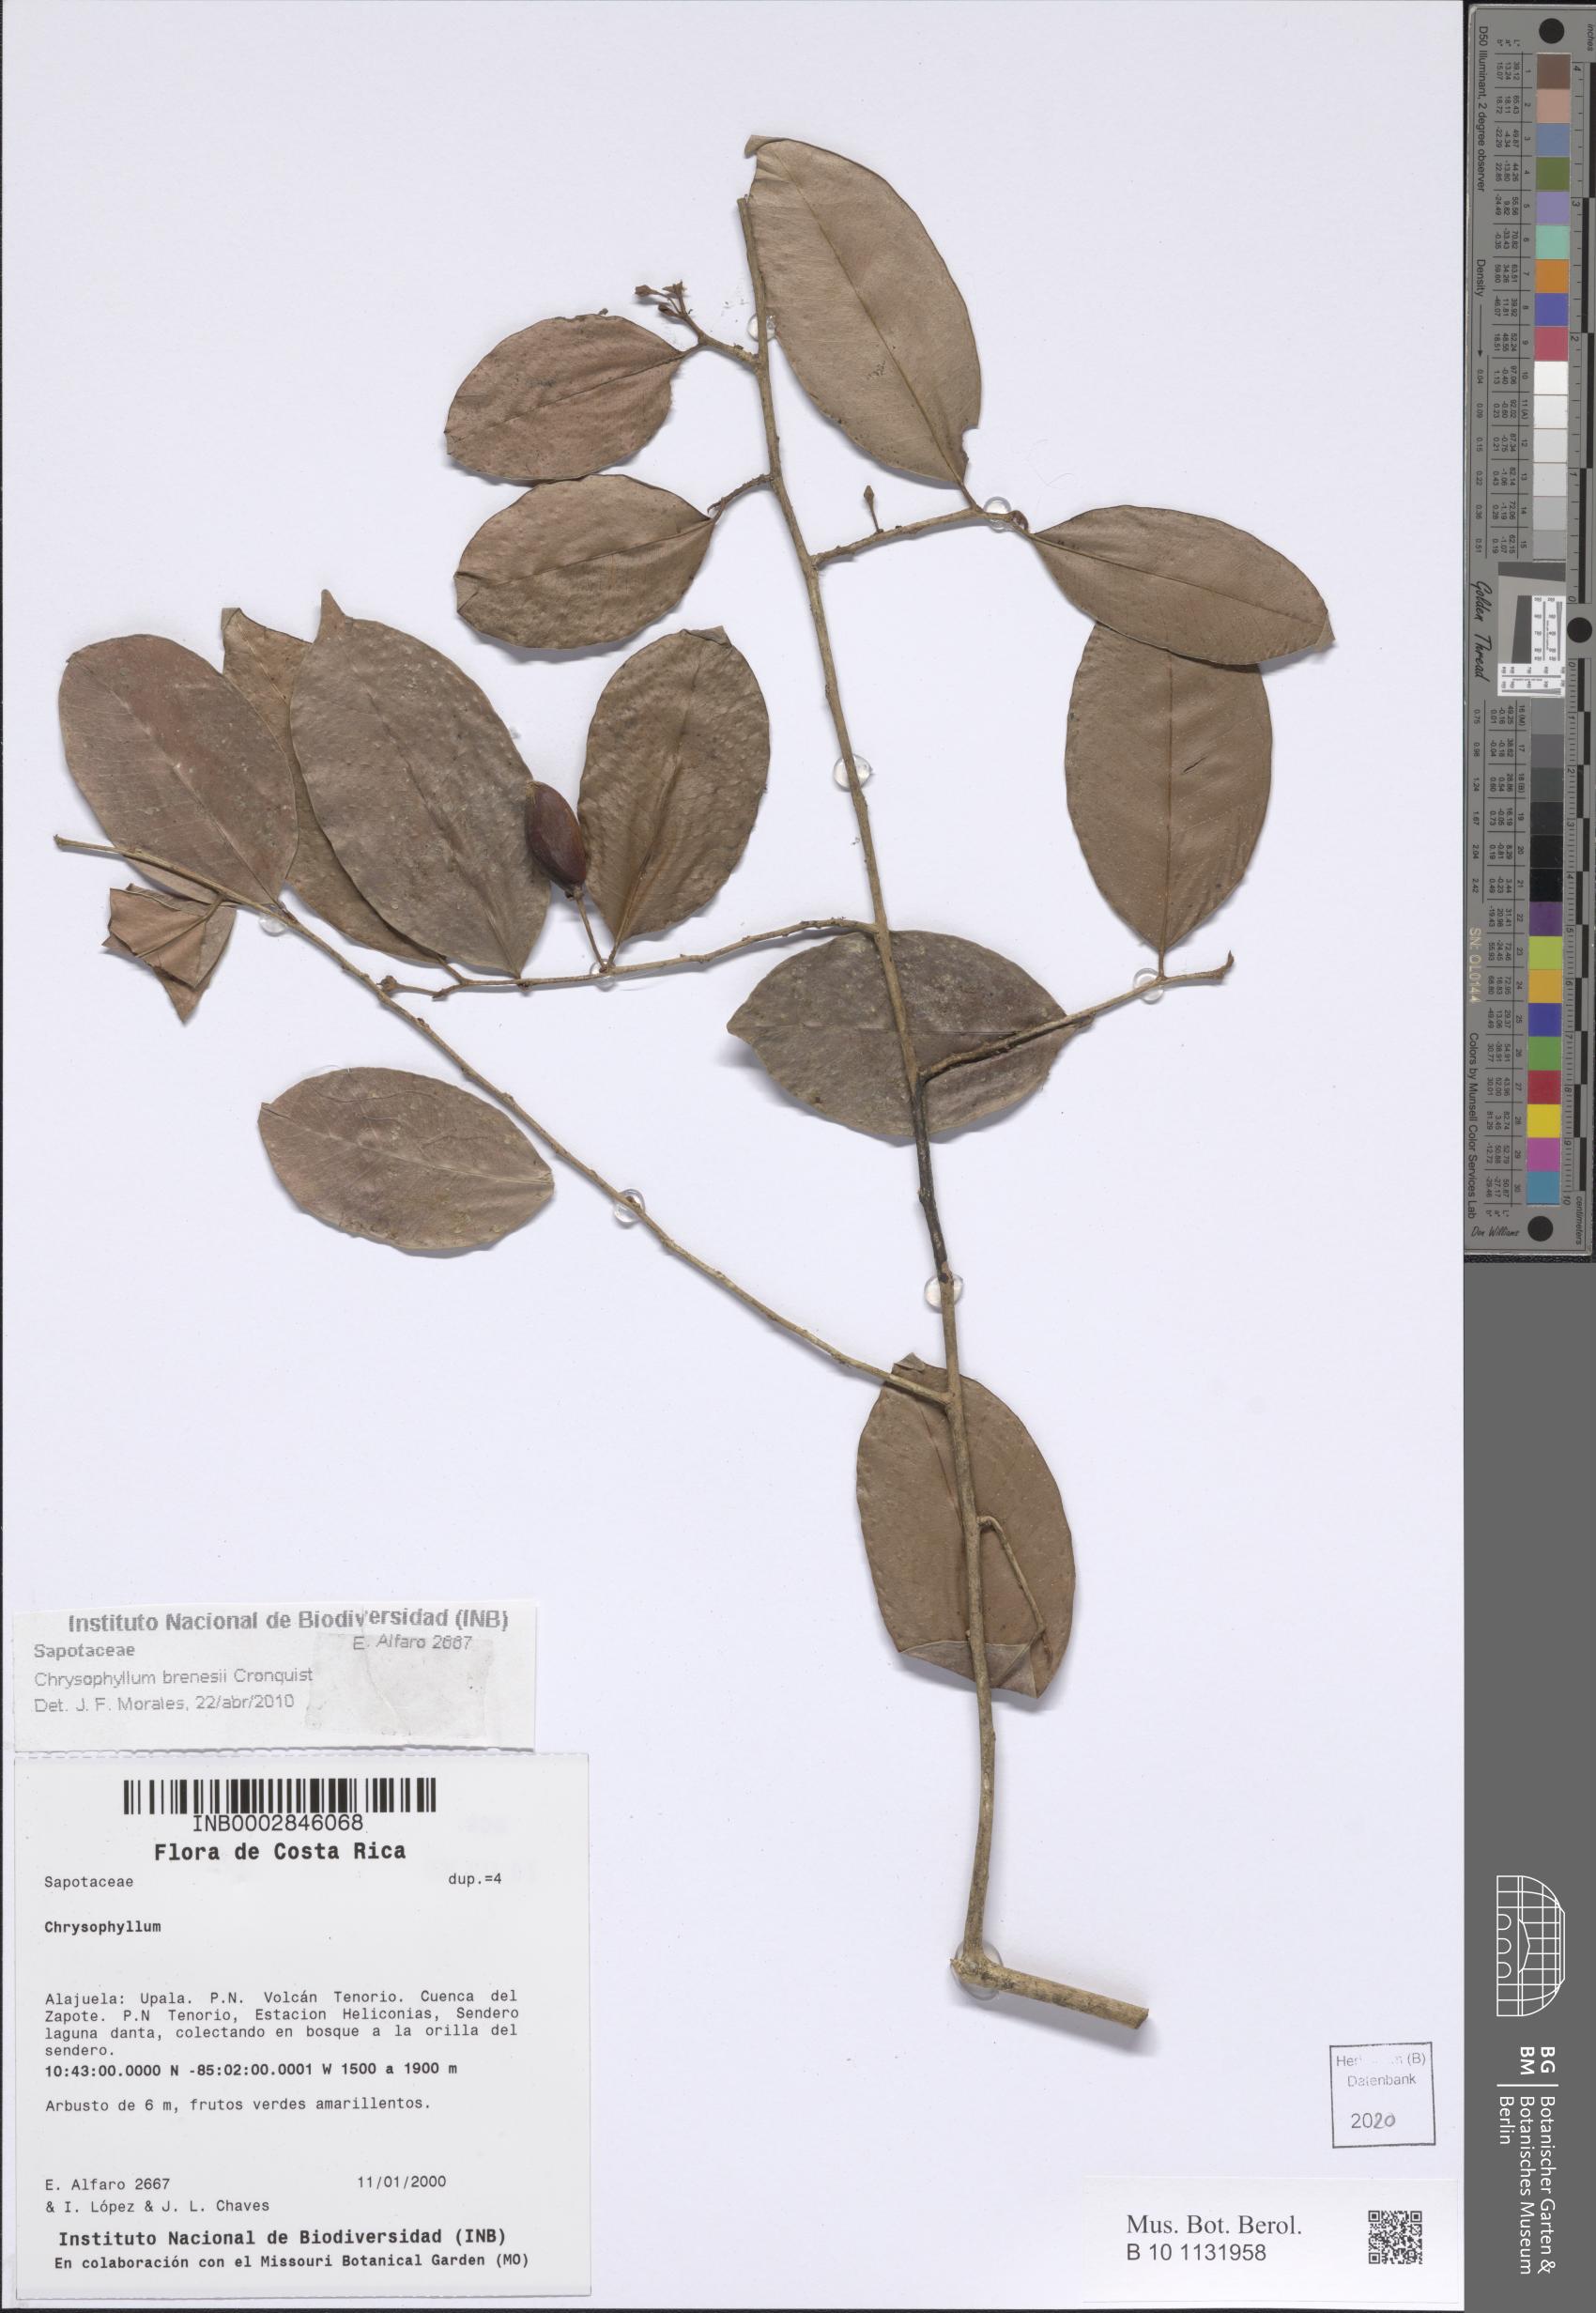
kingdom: Plantae
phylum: Tracheophyta
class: Magnoliopsida
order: Ericales
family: Sapotaceae
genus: Chrysophyllum
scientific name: Chrysophyllum brenesii
